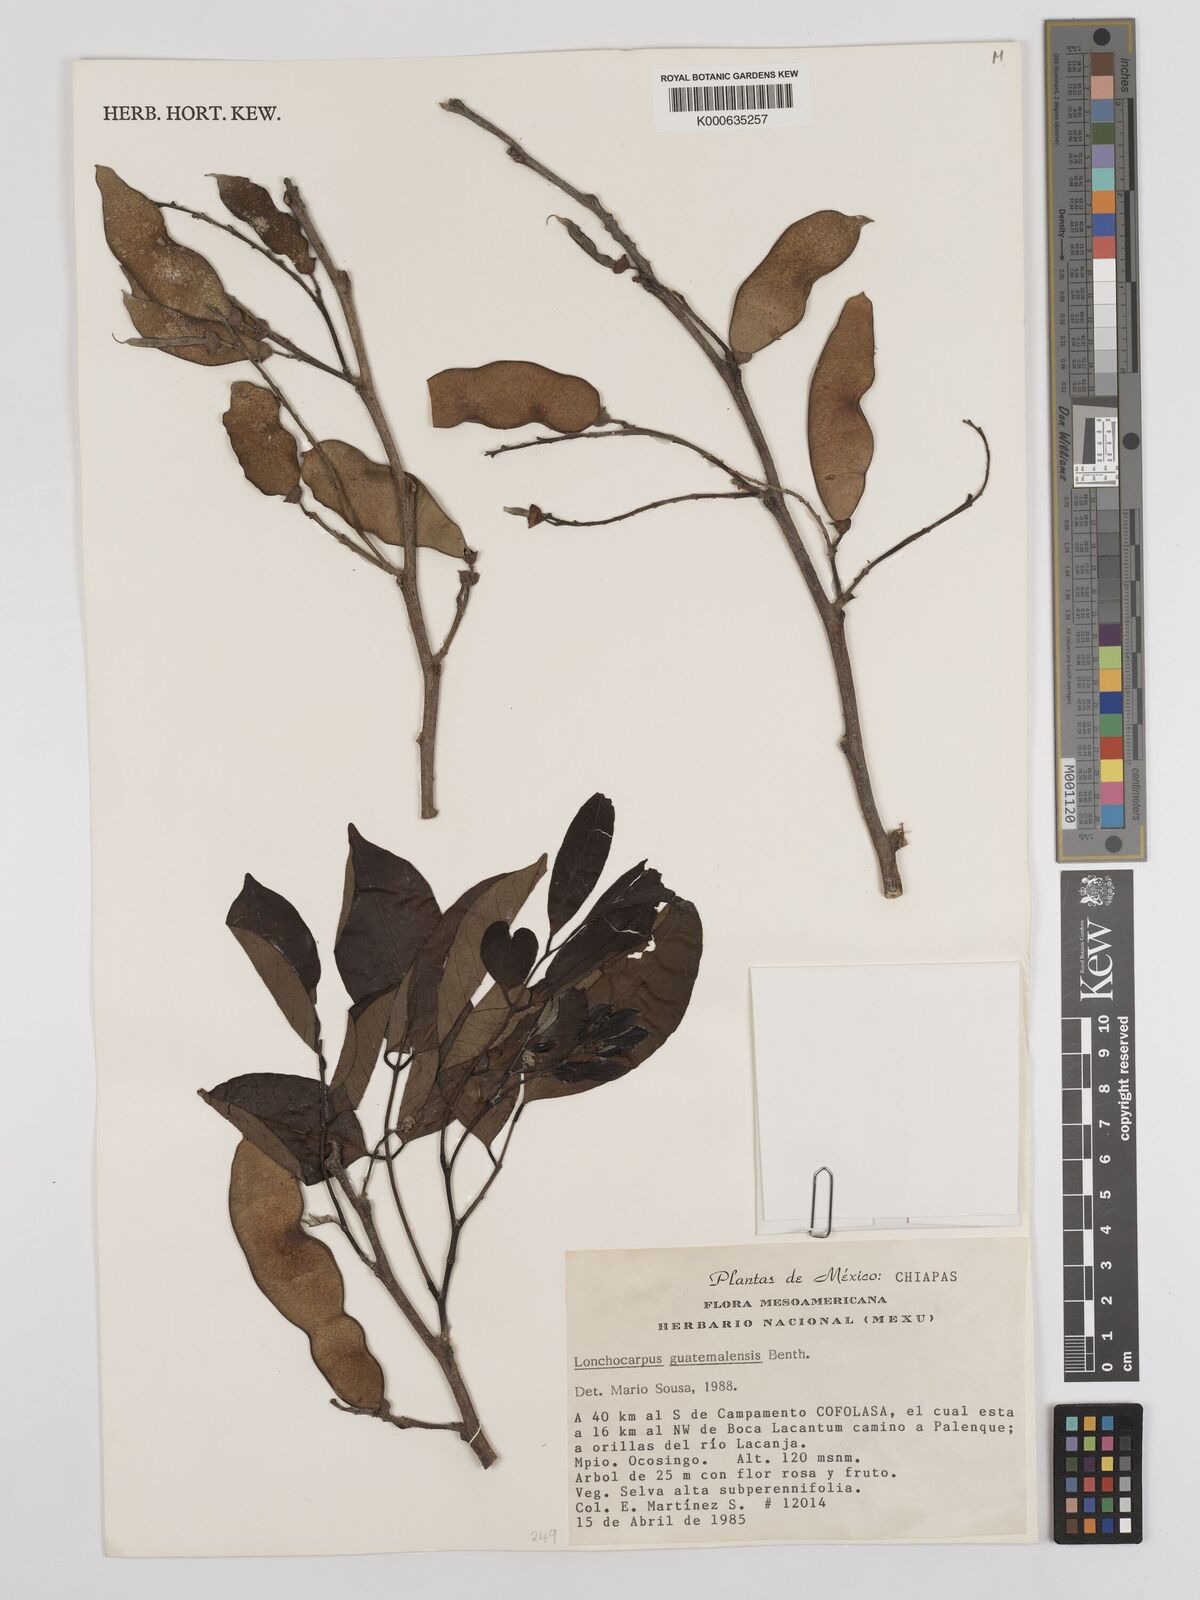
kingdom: Plantae
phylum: Tracheophyta
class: Magnoliopsida
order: Fabales
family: Fabaceae
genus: Lonchocarpus
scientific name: Lonchocarpus guatemalensis
